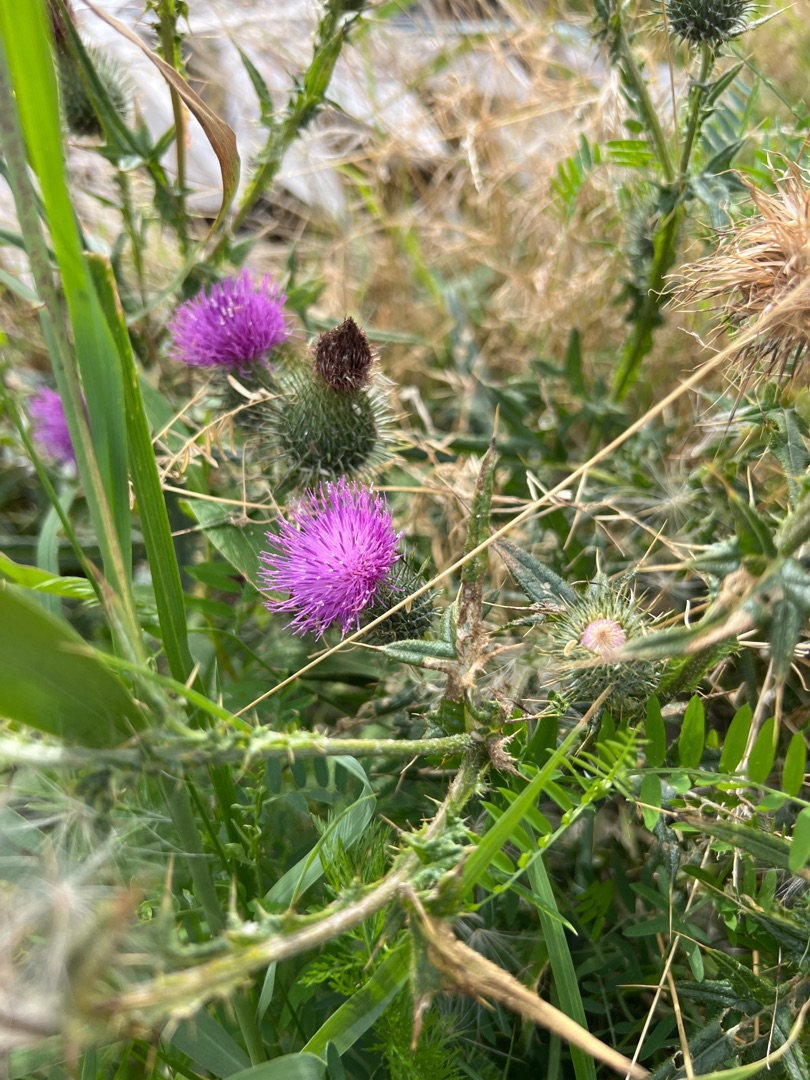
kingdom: Plantae
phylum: Tracheophyta
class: Magnoliopsida
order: Asterales
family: Asteraceae
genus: Cirsium
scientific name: Cirsium vulgare
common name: Horse-tidsel
